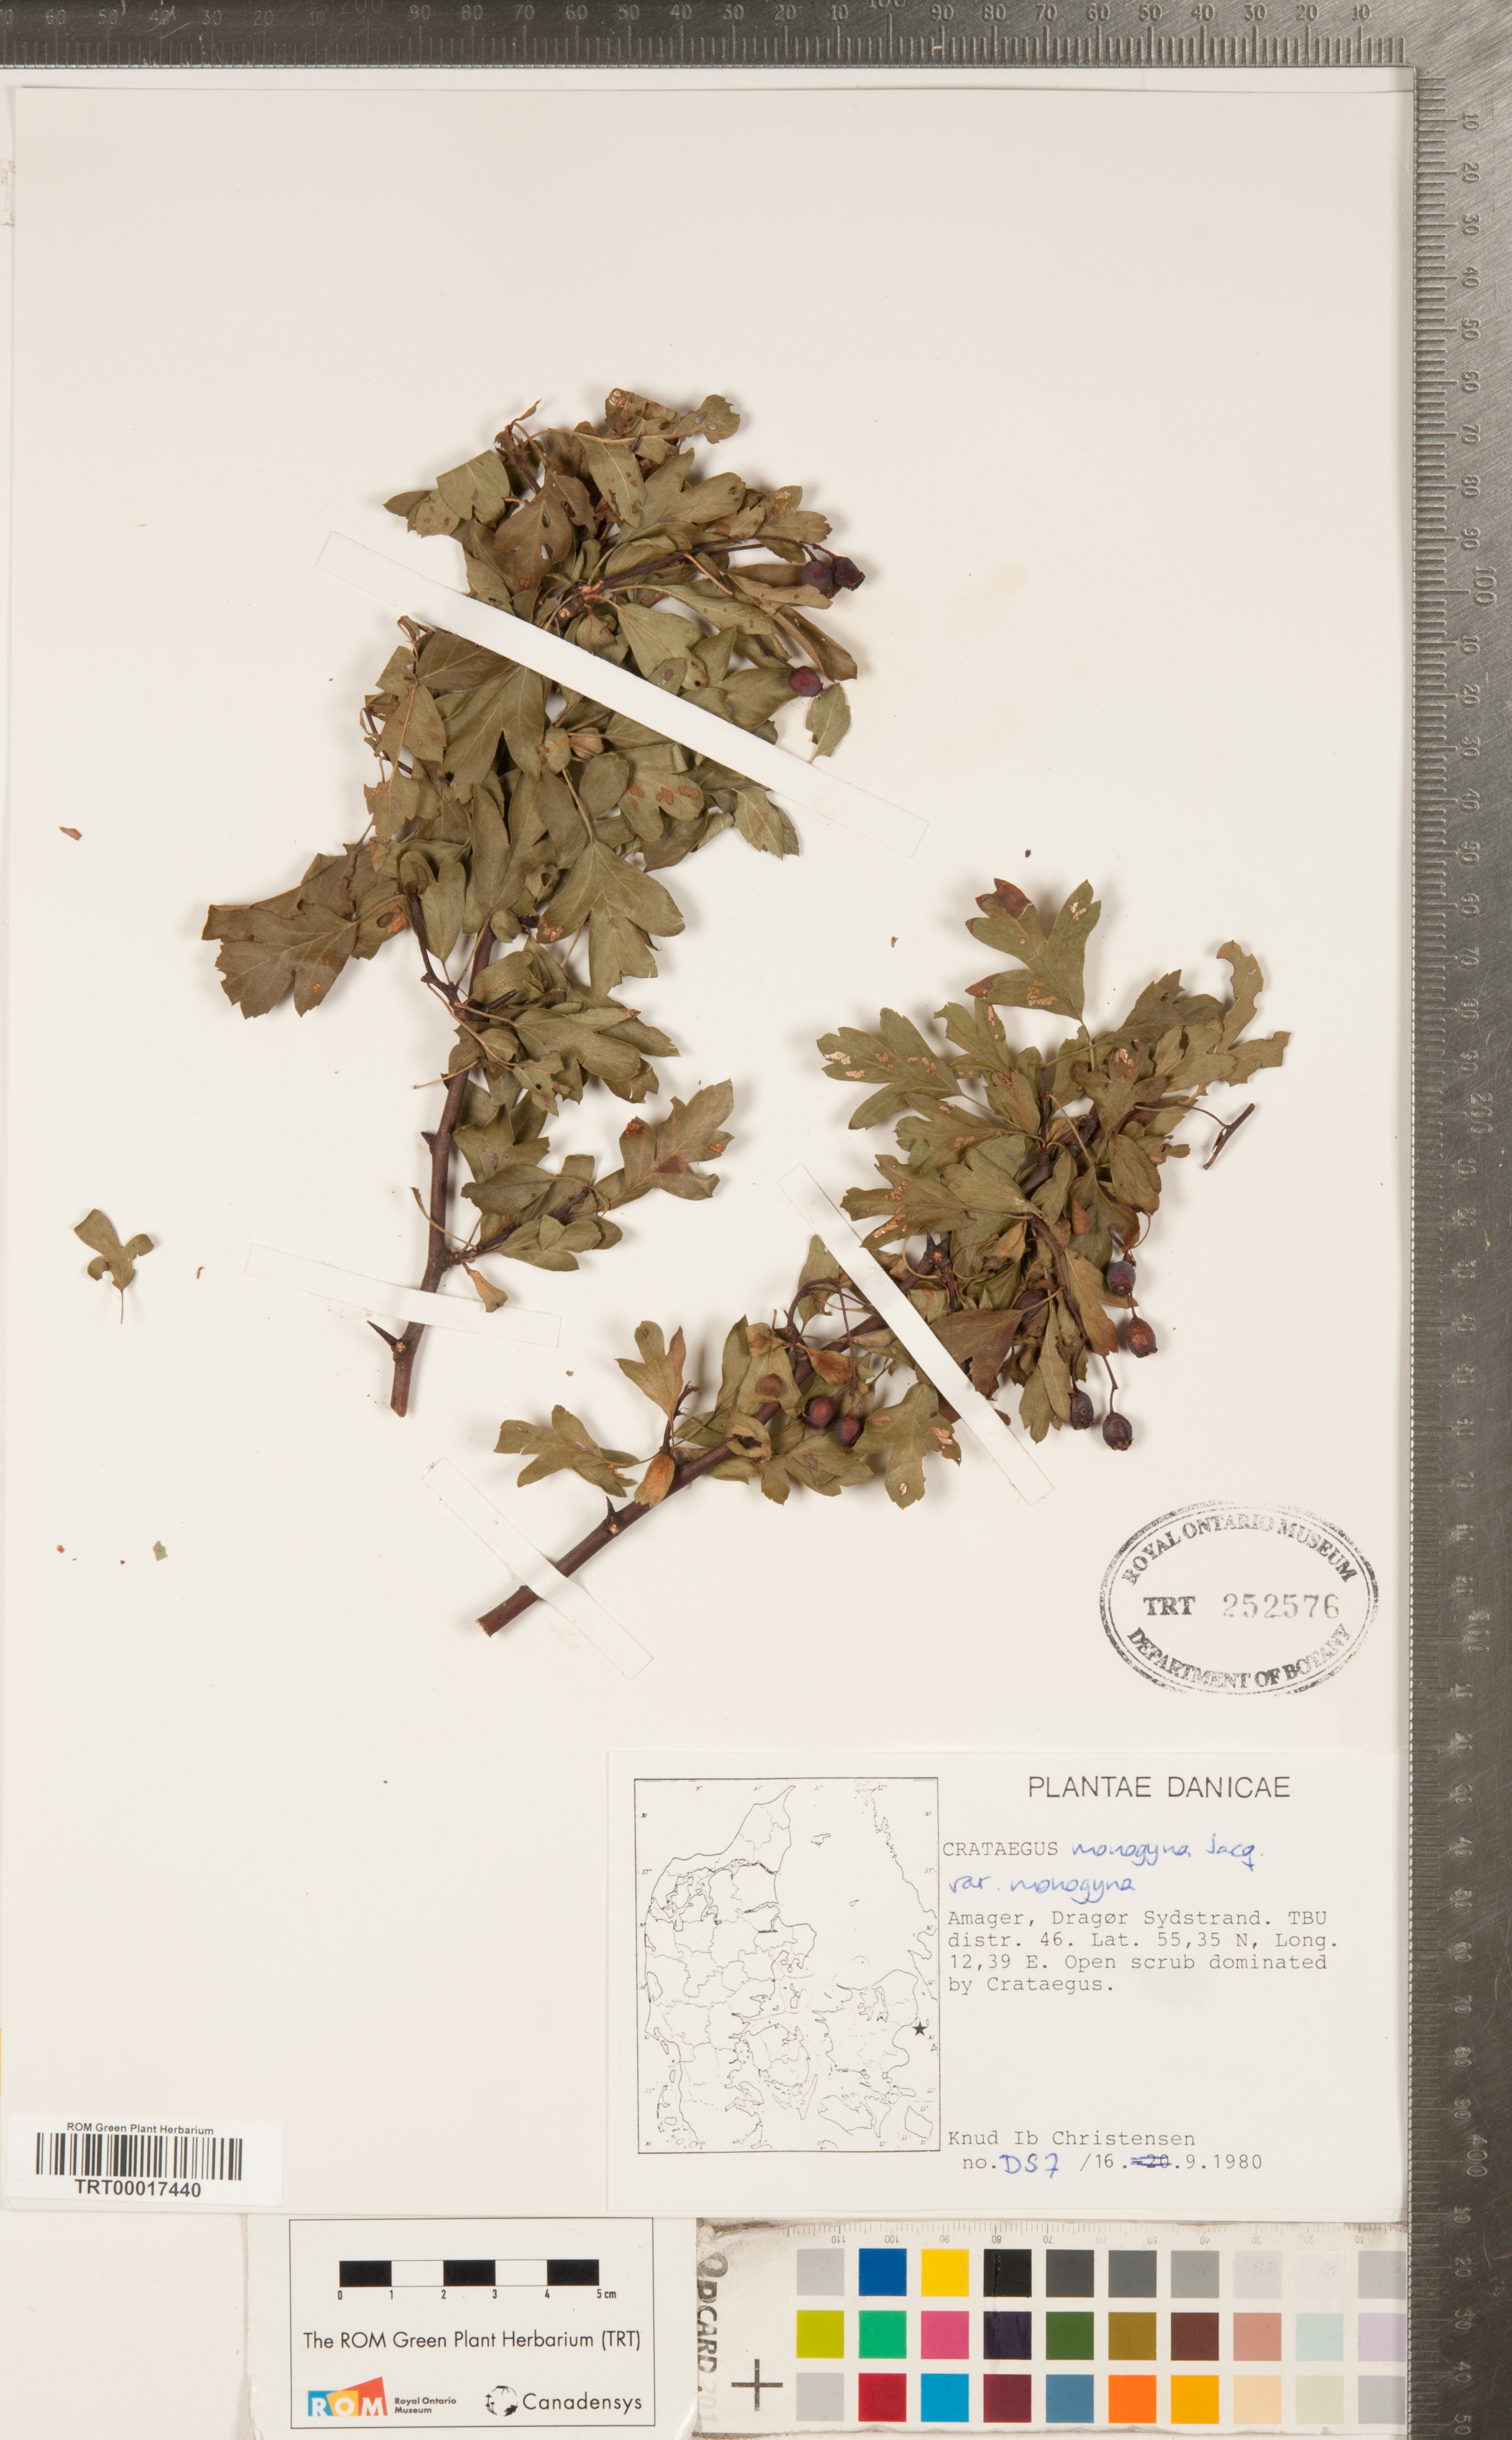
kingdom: Plantae
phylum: Tracheophyta
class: Magnoliopsida
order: Rosales
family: Rosaceae
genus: Crataegus
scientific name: Crataegus monogyna
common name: Hawthorn
